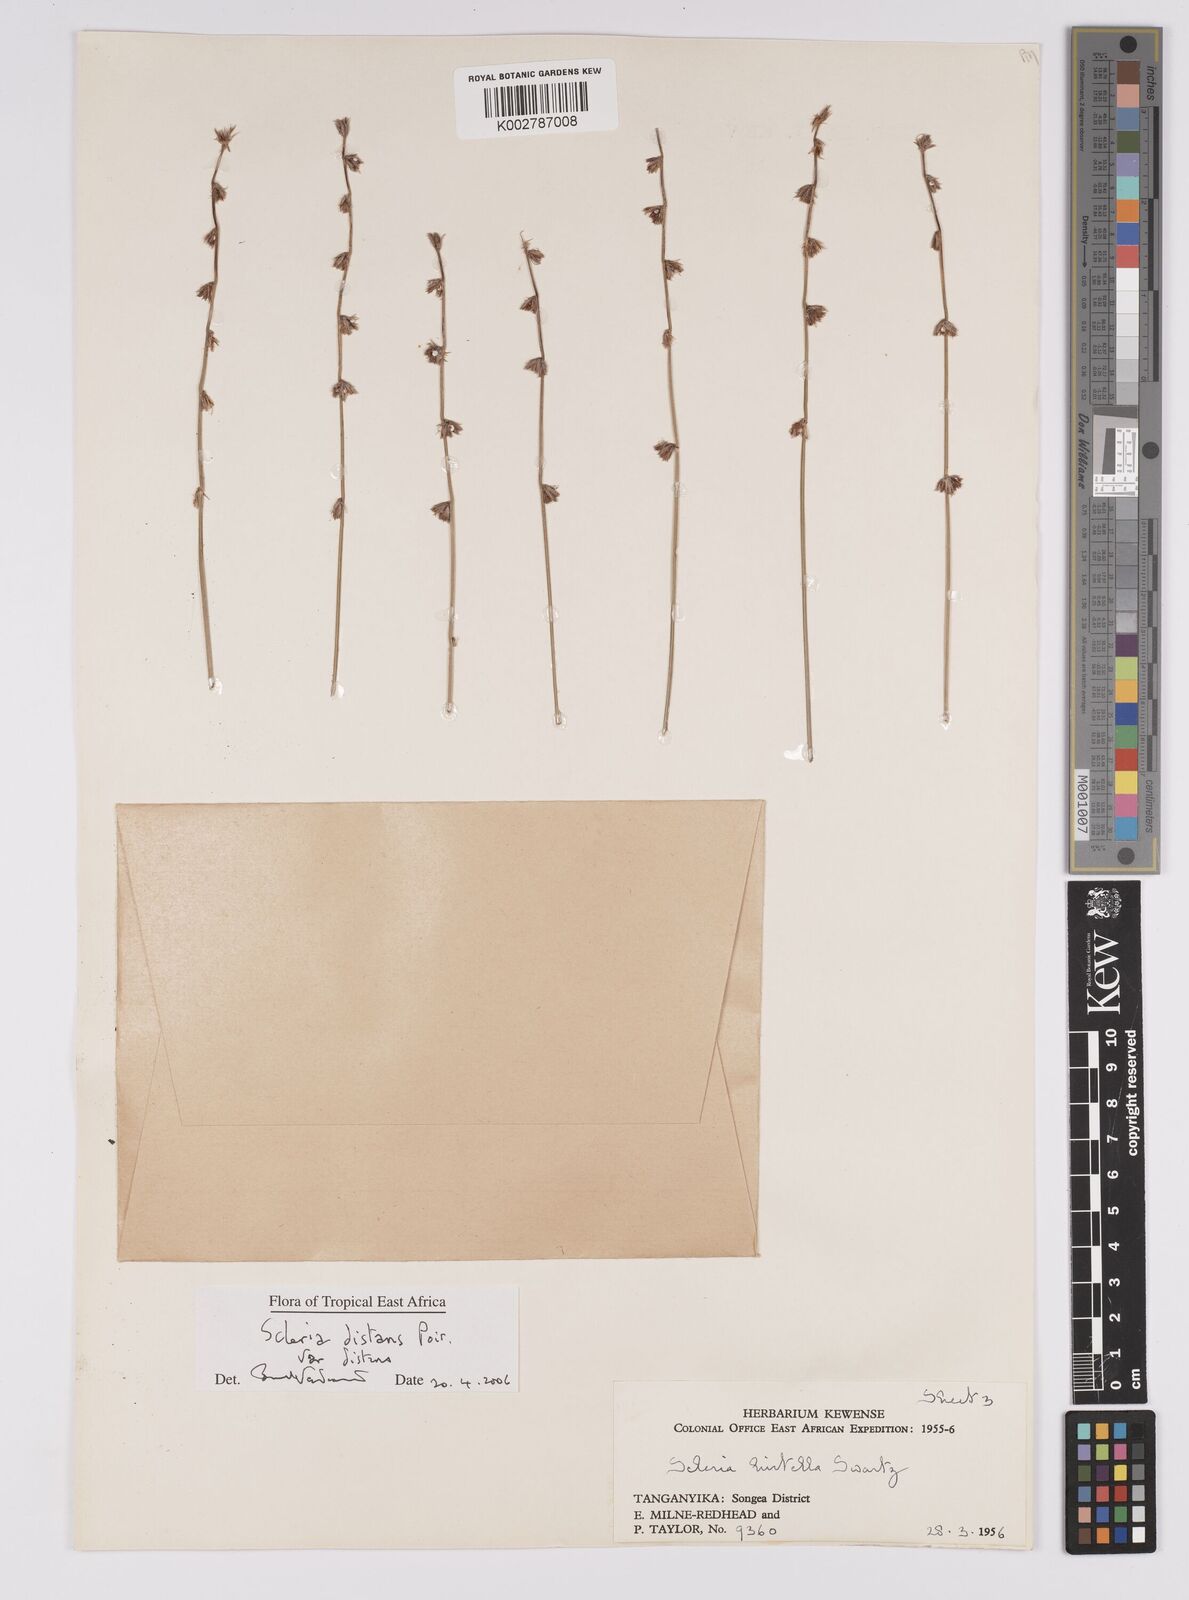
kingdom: Plantae
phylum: Tracheophyta
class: Liliopsida
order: Poales
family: Cyperaceae
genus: Scleria
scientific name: Scleria distans
